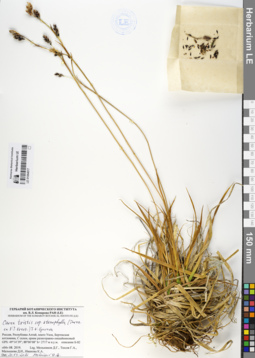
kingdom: Plantae
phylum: Tracheophyta
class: Liliopsida
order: Poales
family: Cyperaceae
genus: Carex
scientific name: Carex stenocarpa
